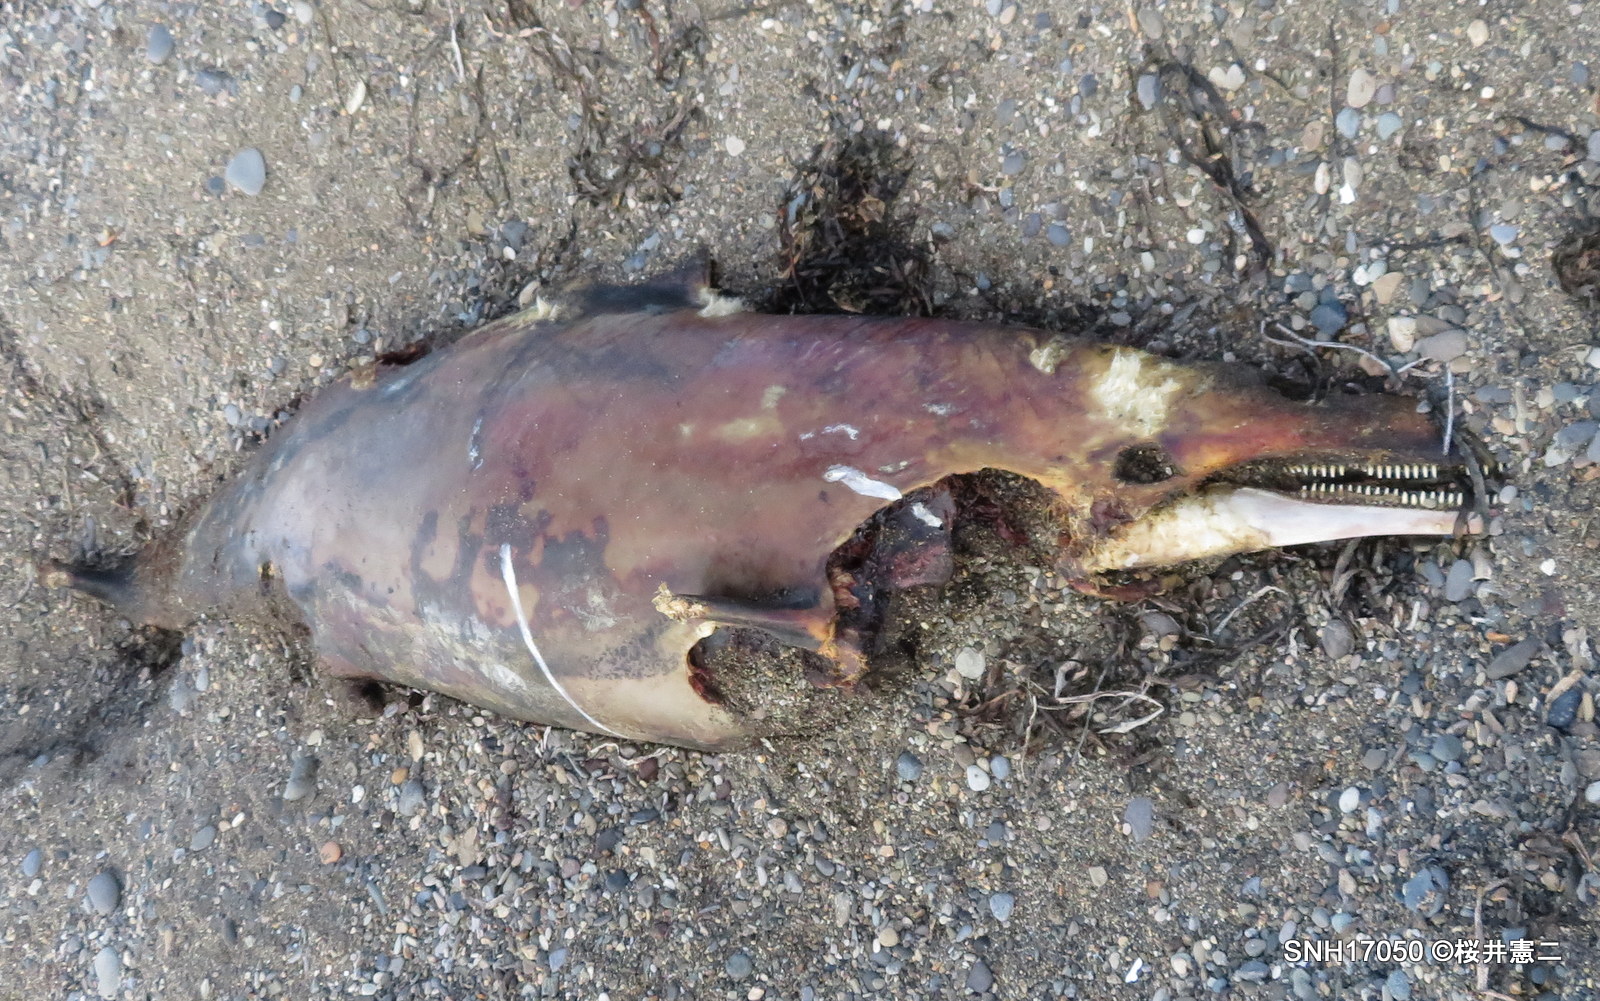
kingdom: Animalia
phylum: Chordata
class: Mammalia
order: Cetacea
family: Delphinidae
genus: Lagenorhynchus
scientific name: Lagenorhynchus obliquidens
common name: Pacific white-sided dolphin
